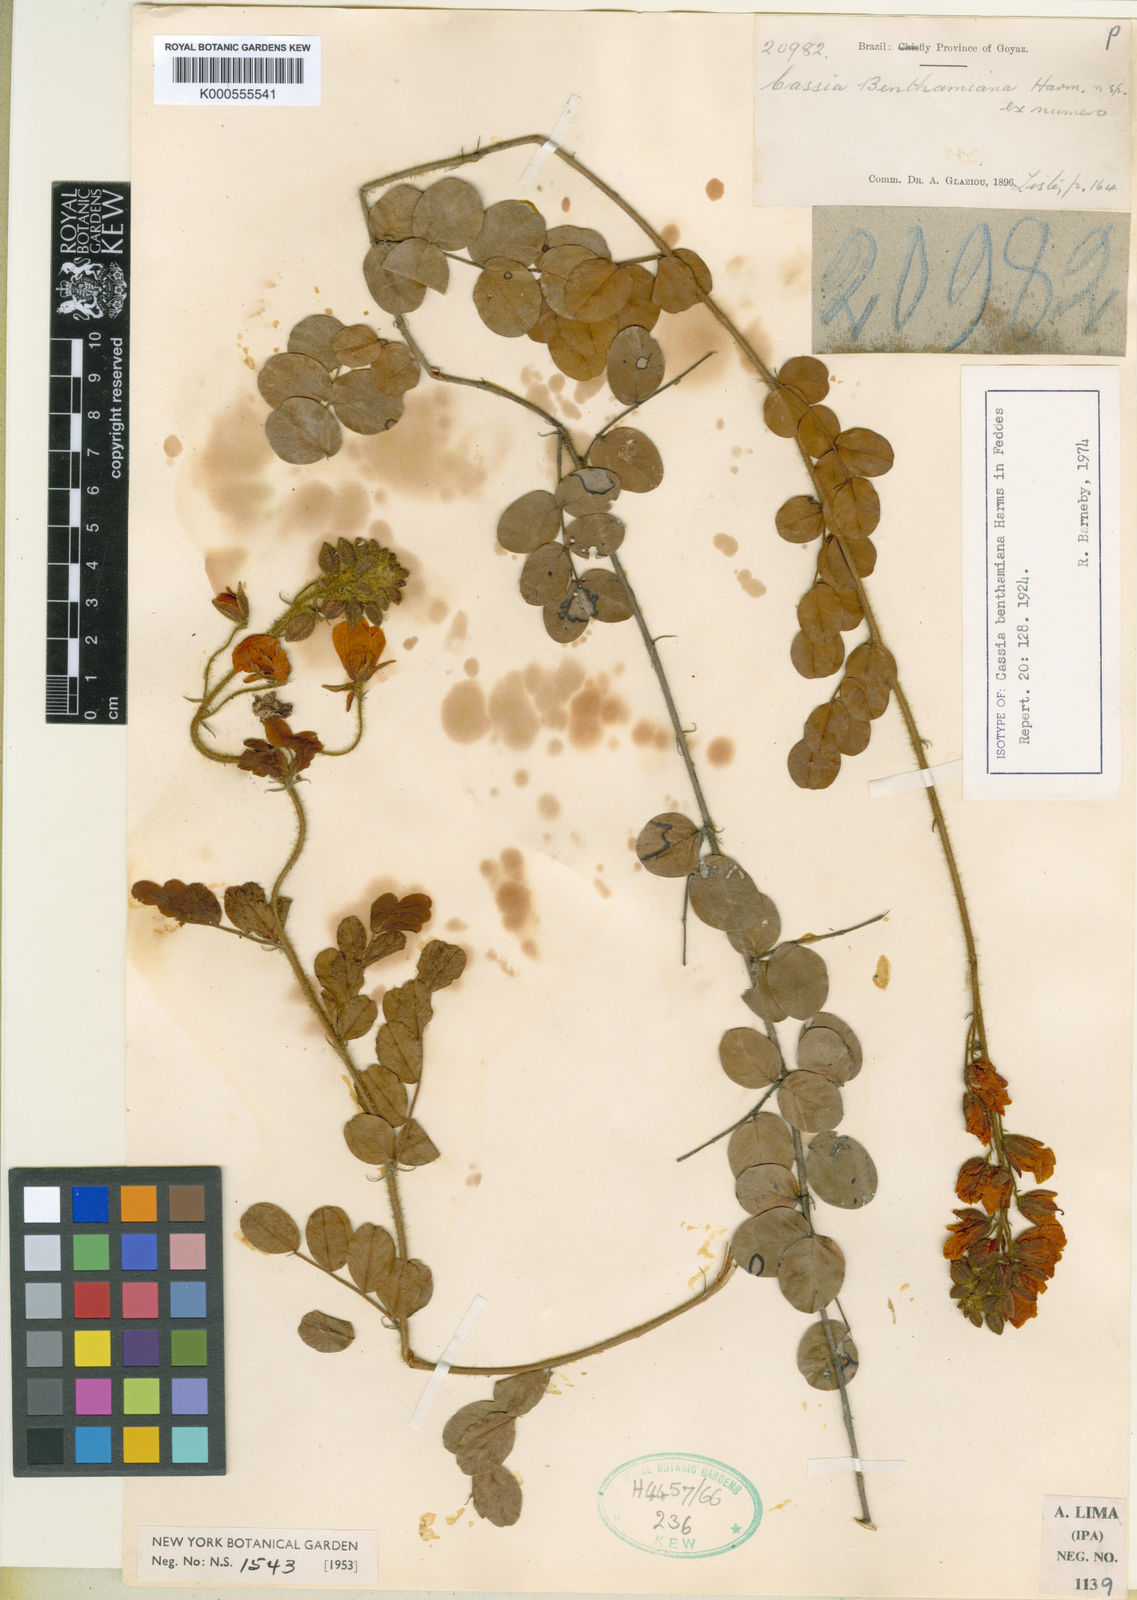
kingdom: Plantae
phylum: Tracheophyta
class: Magnoliopsida
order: Fabales
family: Fabaceae
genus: Chamaecrista
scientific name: Chamaecrista benthamiana
